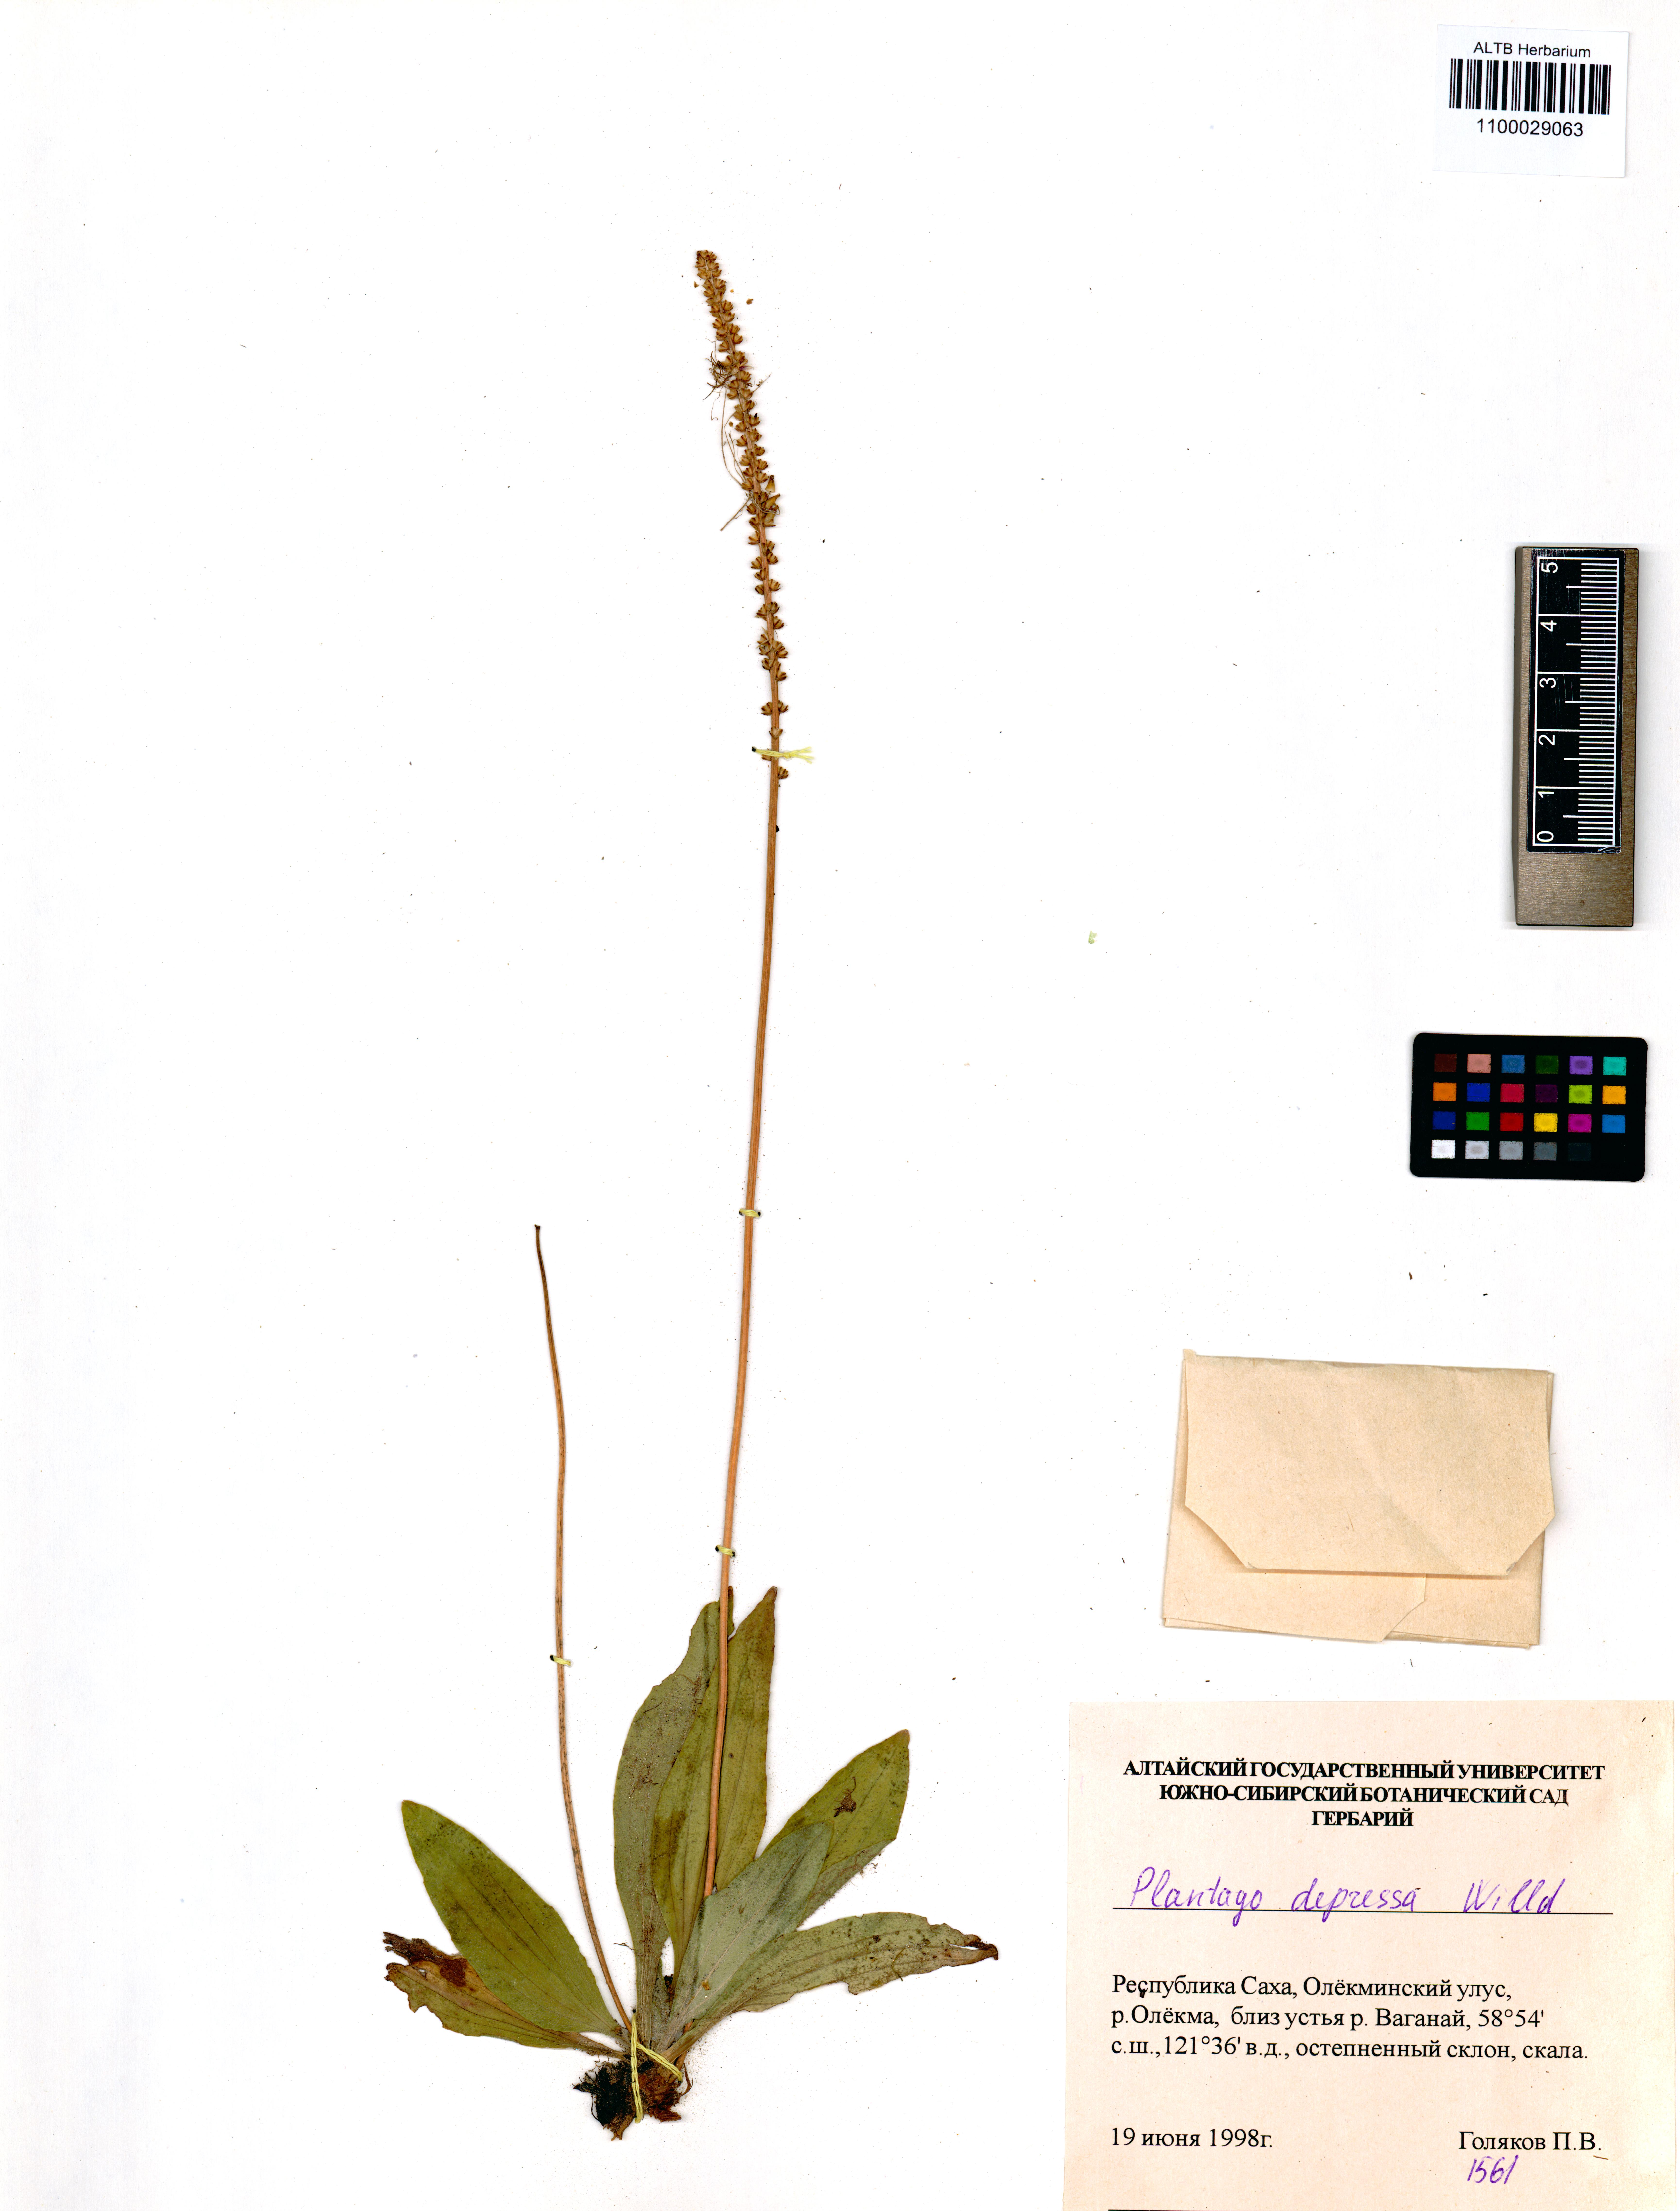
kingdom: Plantae
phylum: Tracheophyta
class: Magnoliopsida
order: Lamiales
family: Plantaginaceae
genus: Plantago
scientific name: Plantago depressa
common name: Depressed plantain
